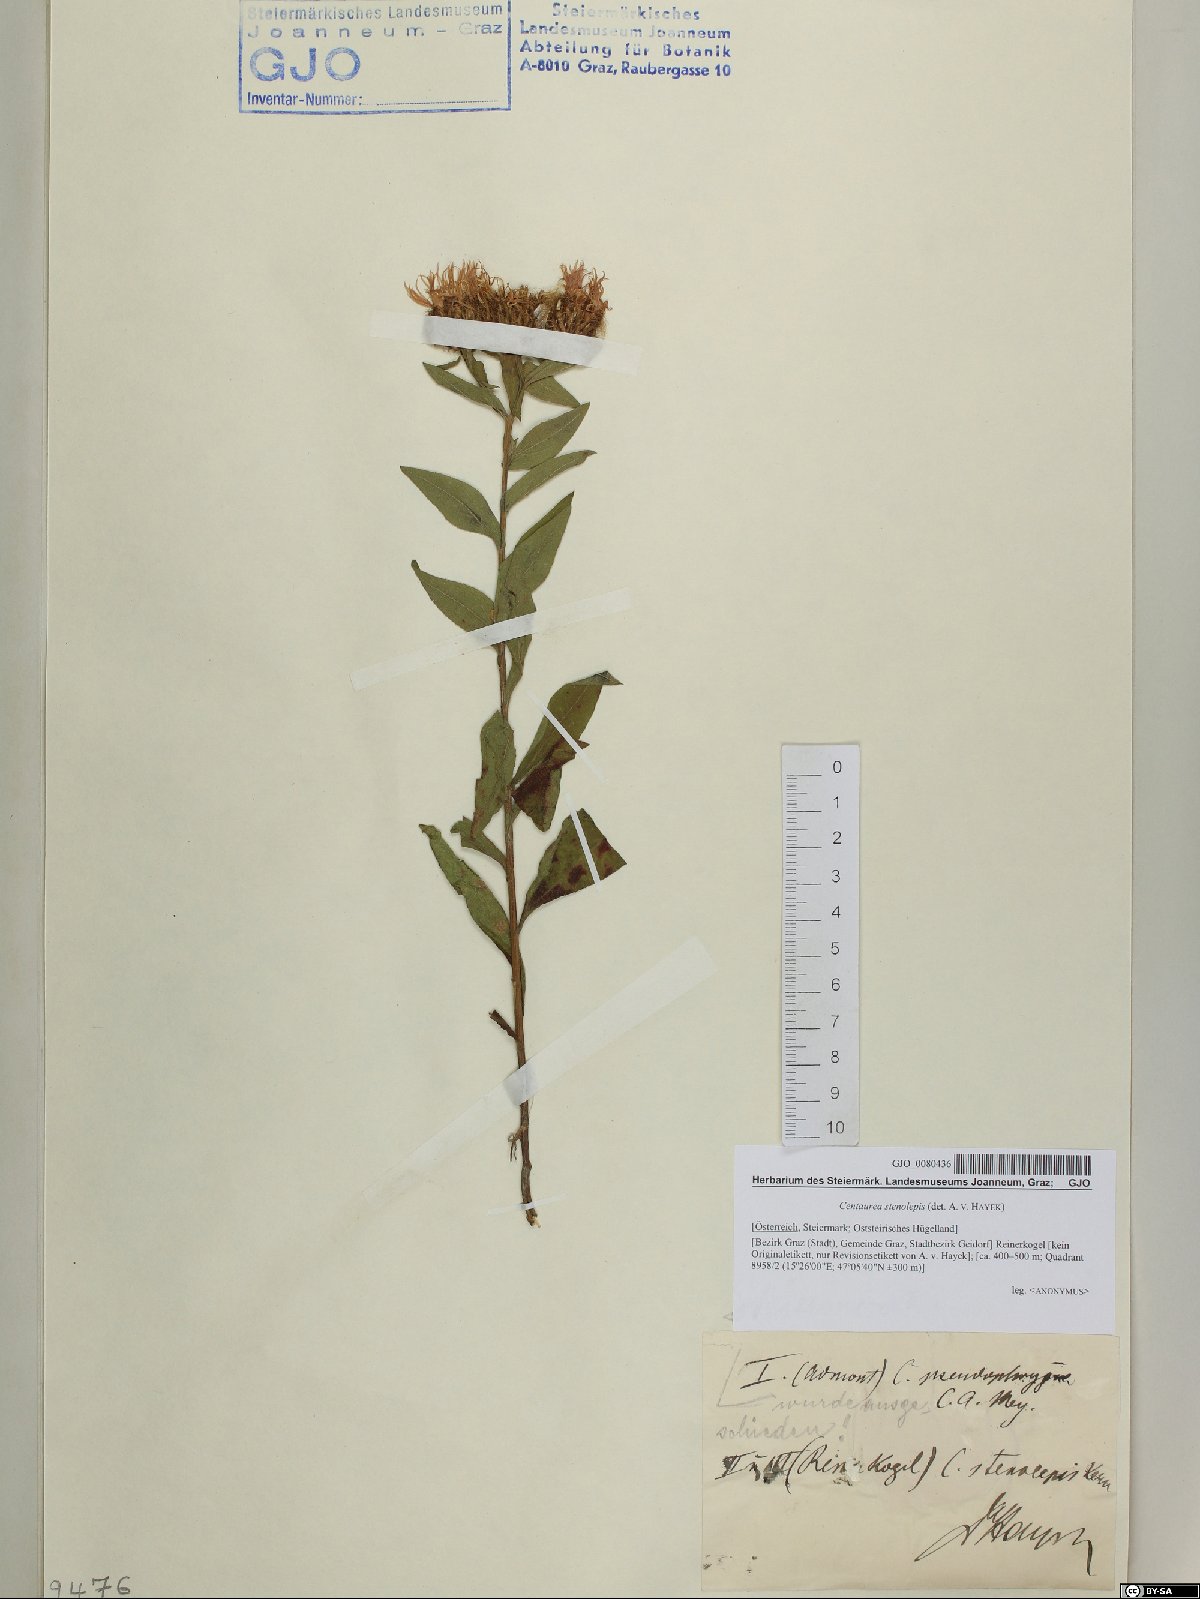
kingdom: Plantae
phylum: Tracheophyta
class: Magnoliopsida
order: Asterales
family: Asteraceae
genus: Centaurea
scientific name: Centaurea stenolepis
